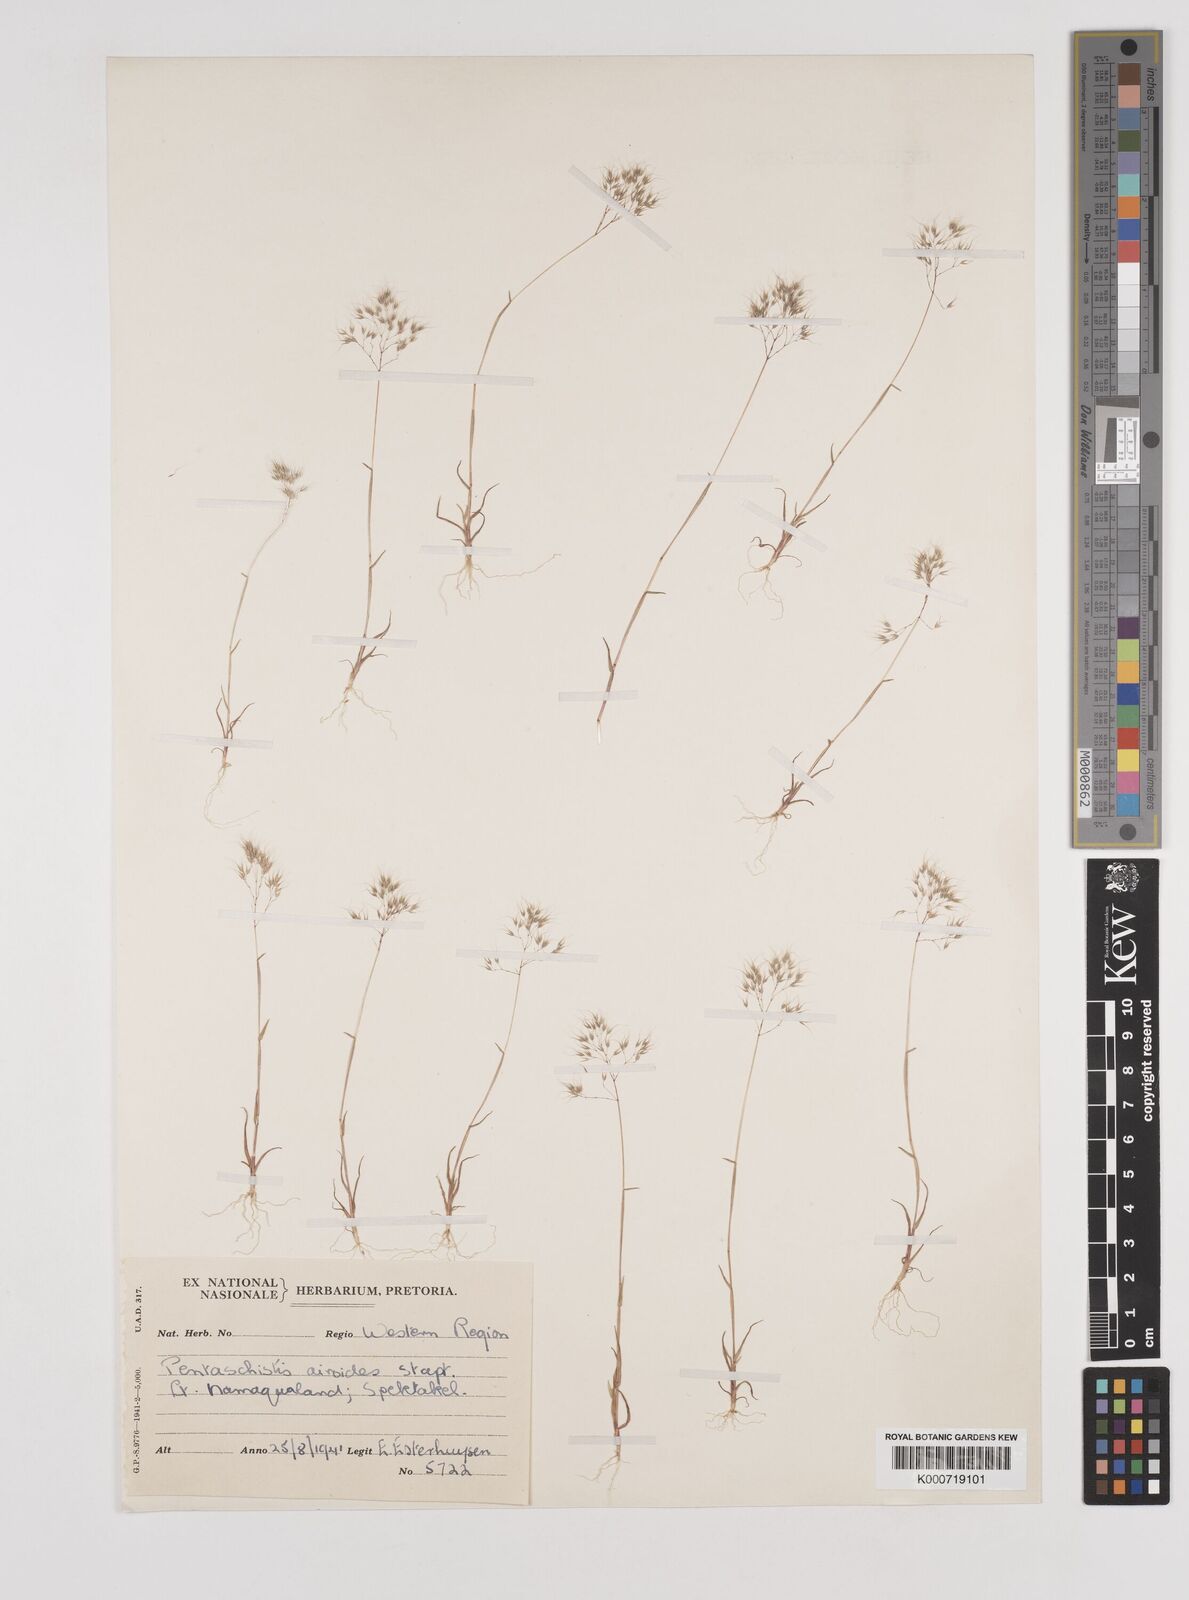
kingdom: Plantae
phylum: Tracheophyta
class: Liliopsida
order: Poales
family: Poaceae
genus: Pentameris
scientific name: Pentameris airoides
